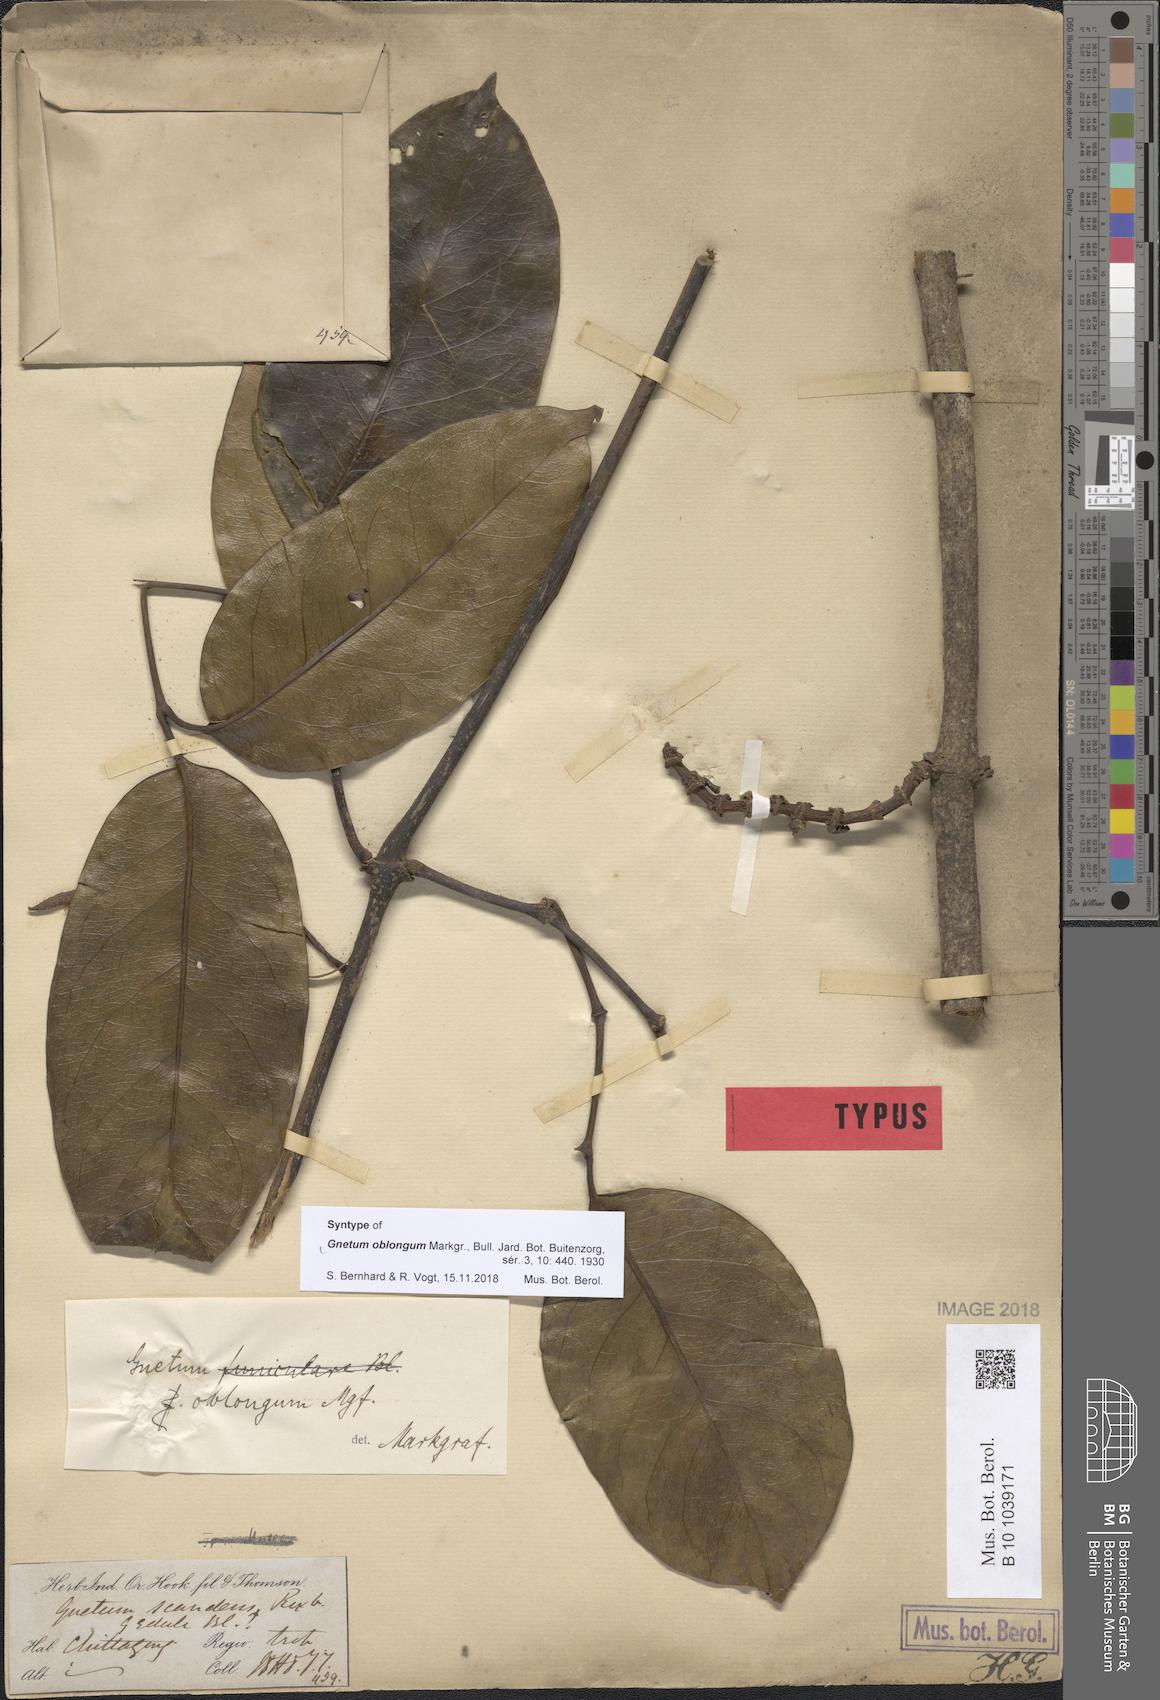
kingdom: Plantae
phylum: Tracheophyta
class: Gnetopsida
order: Gnetales
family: Gnetaceae
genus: Gnetum
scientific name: Gnetum oblongum
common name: Oblong-seeded gnetum
